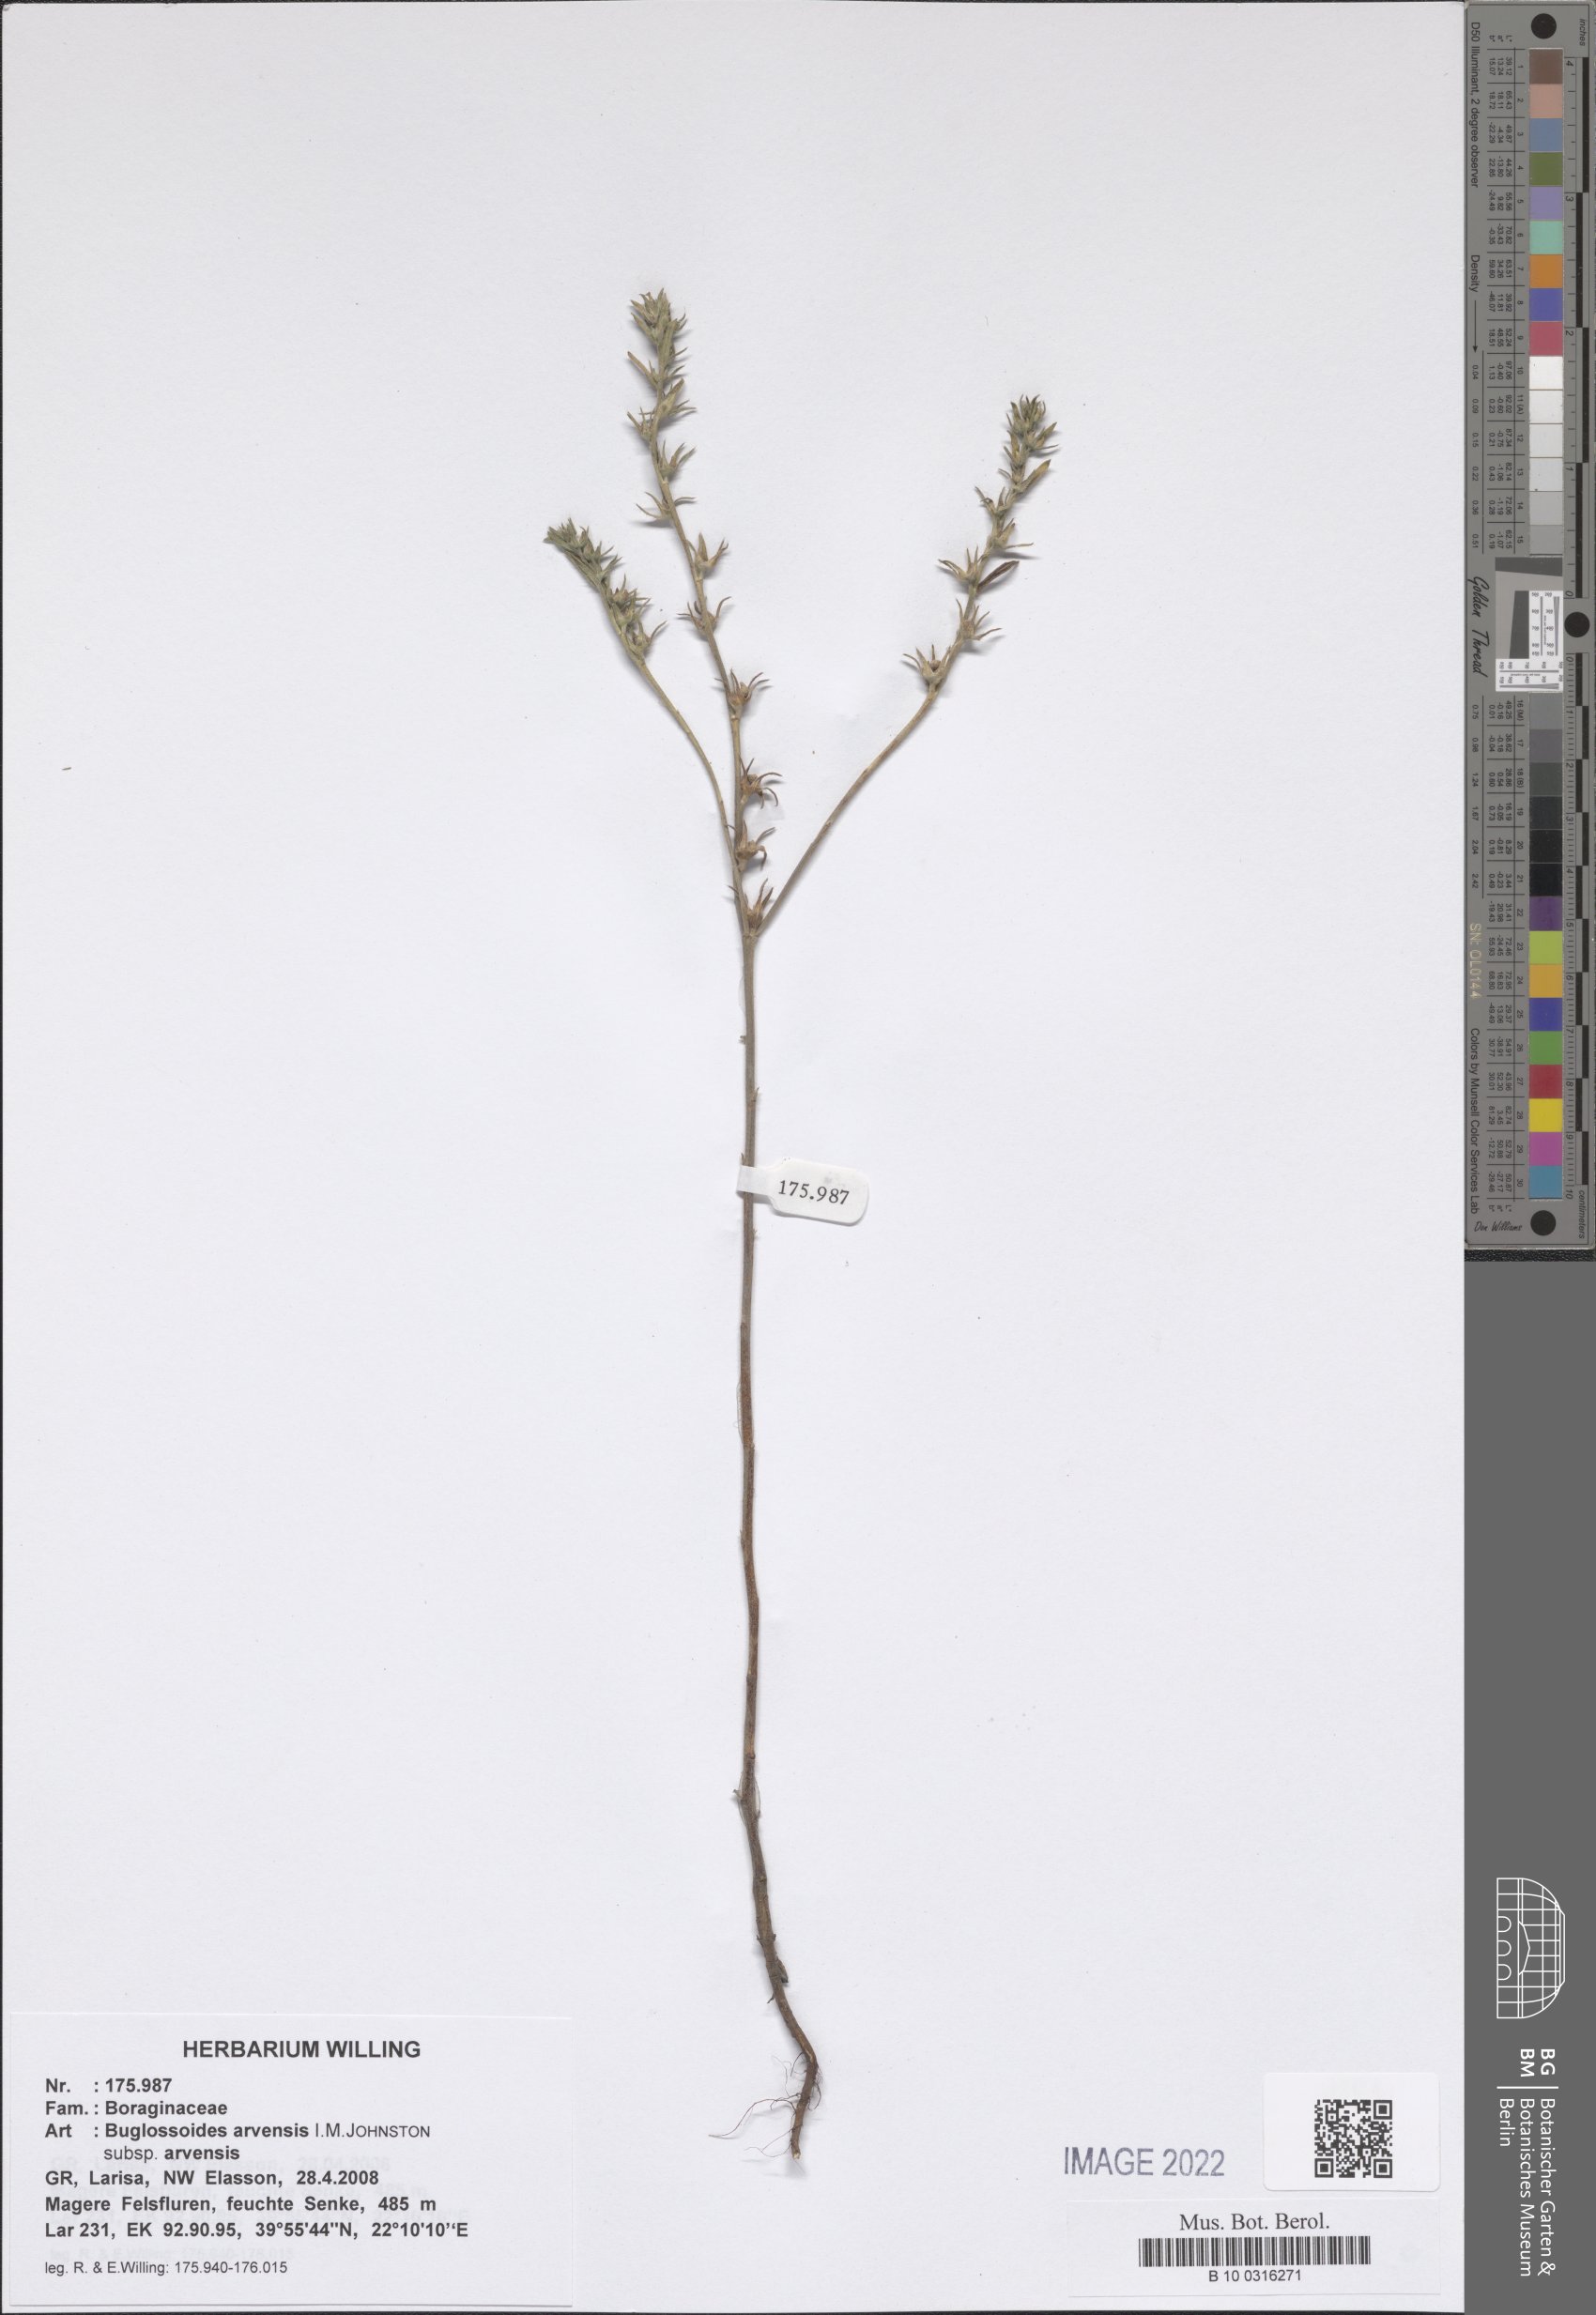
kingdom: Plantae
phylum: Tracheophyta
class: Magnoliopsida
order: Boraginales
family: Boraginaceae
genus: Buglossoides
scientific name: Buglossoides arvensis
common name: Corn gromwell
